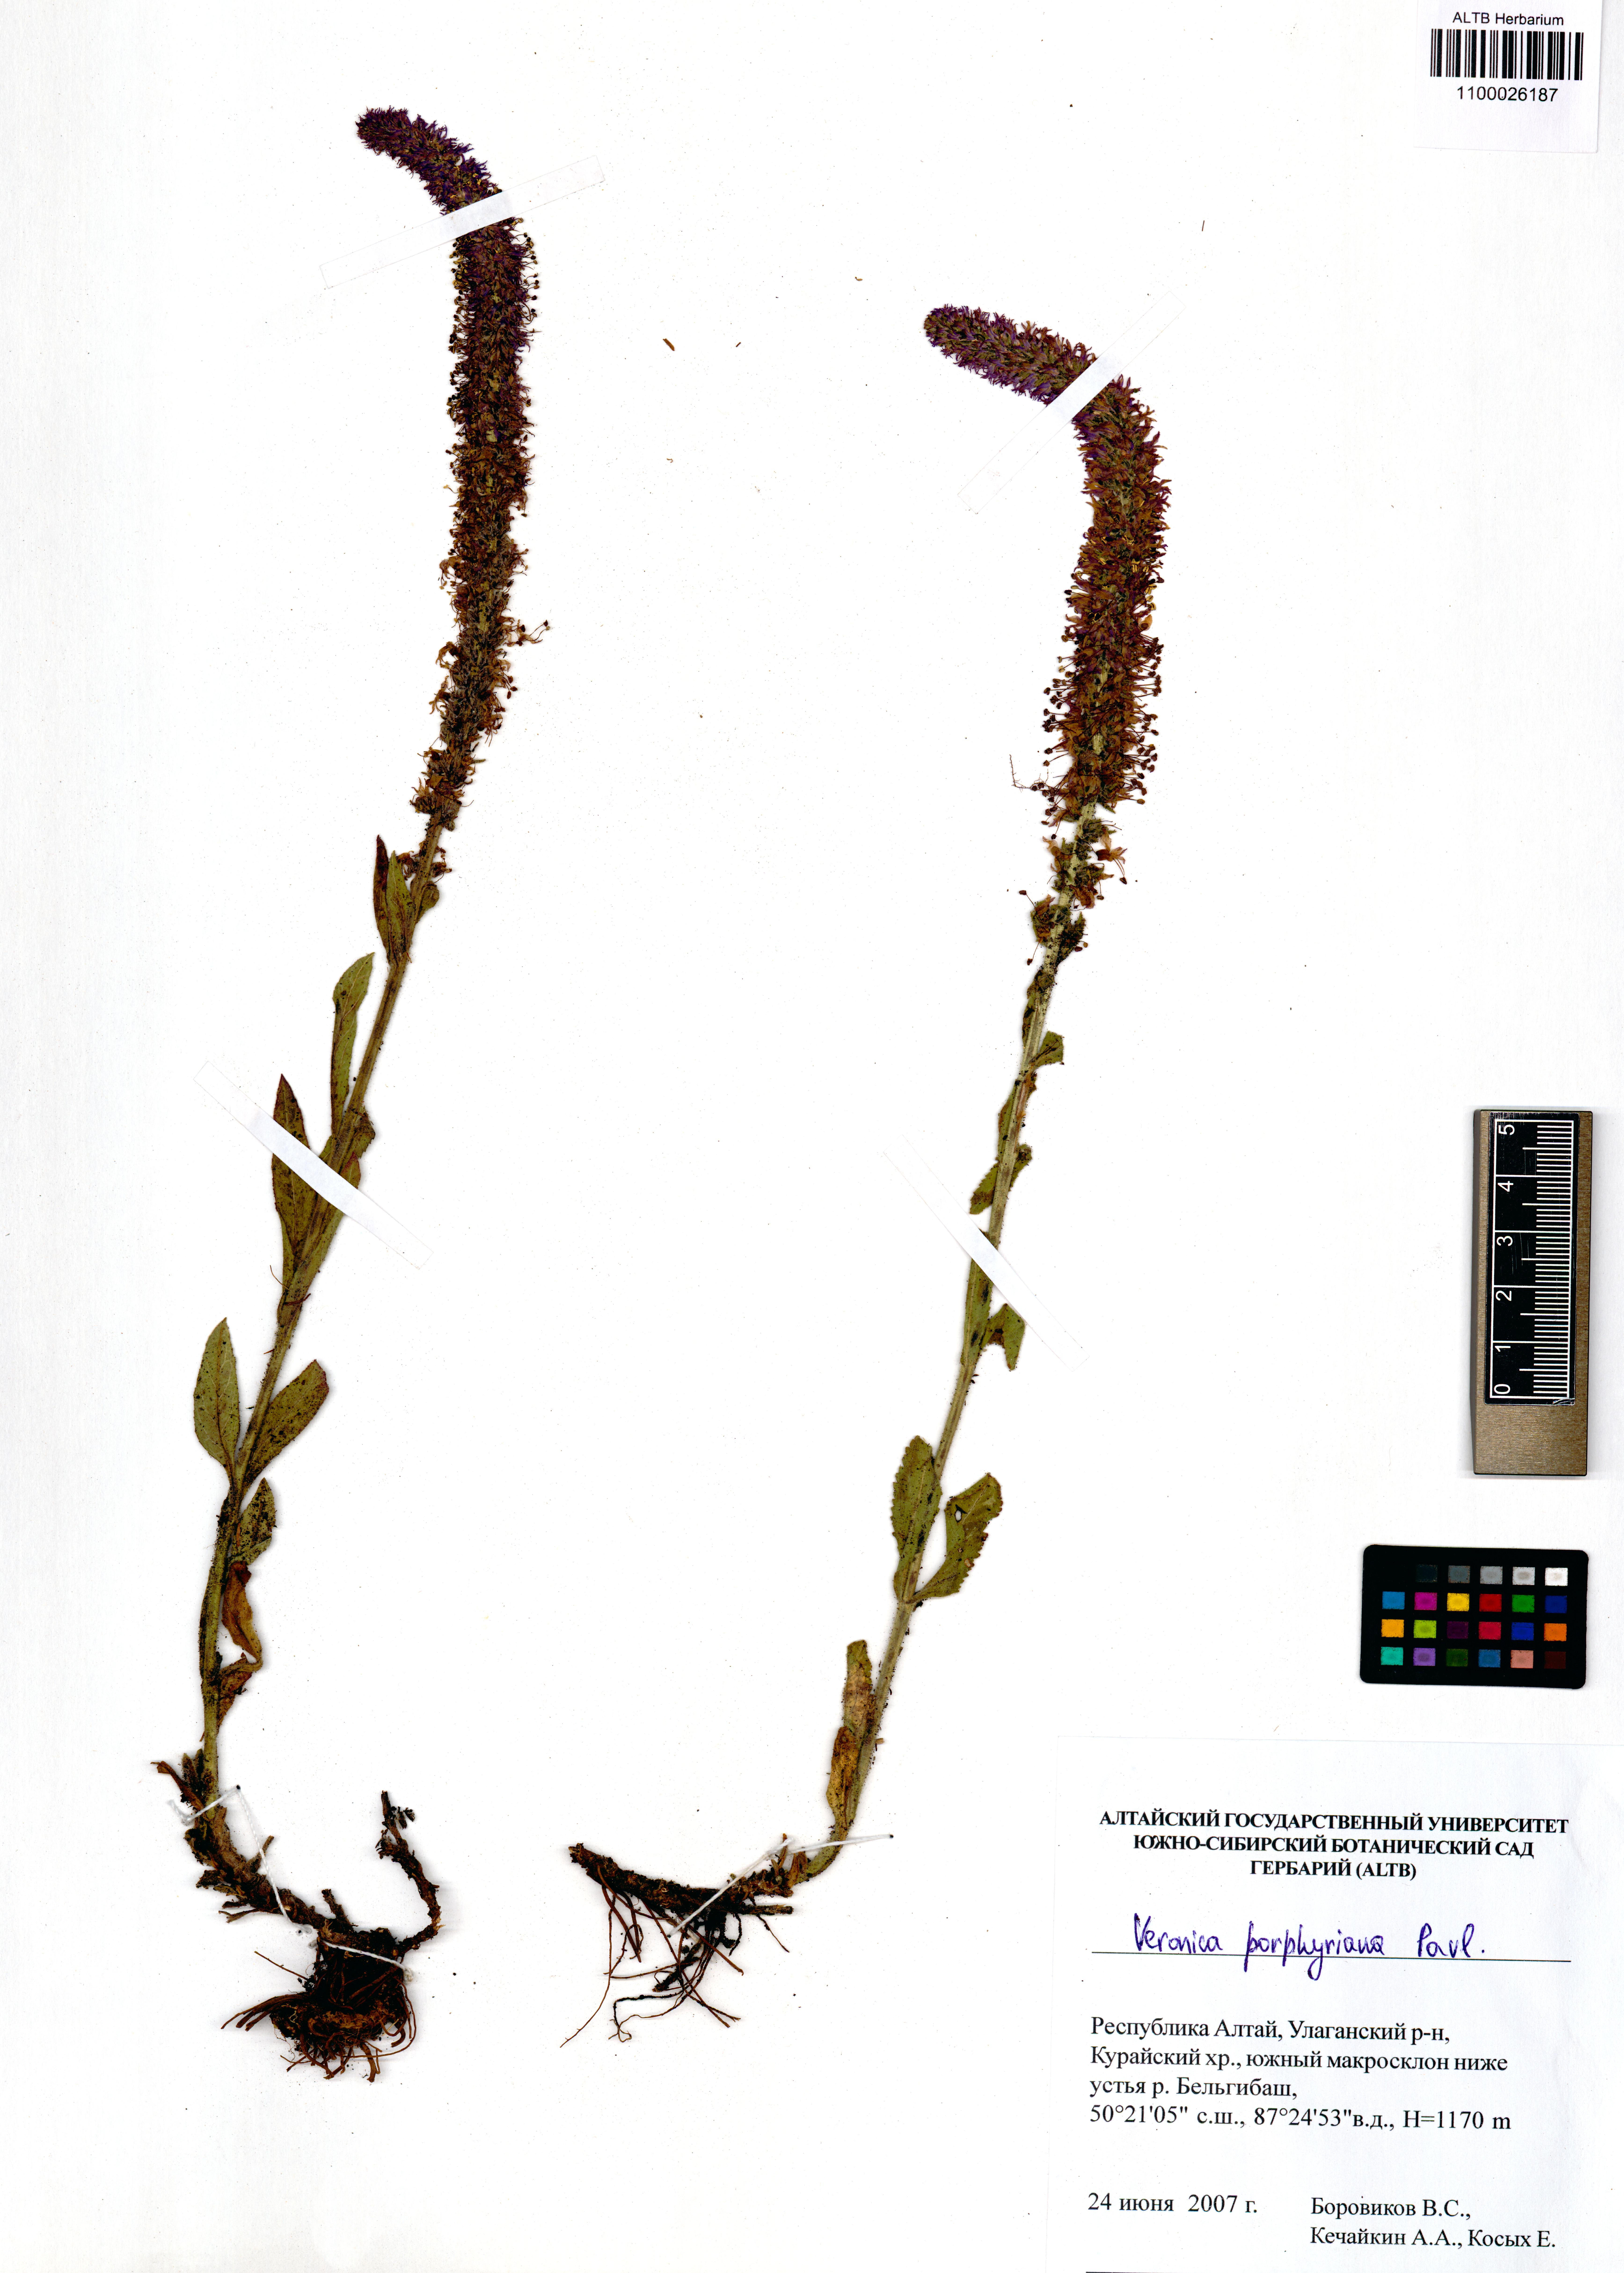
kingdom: Plantae
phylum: Tracheophyta
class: Magnoliopsida
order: Lamiales
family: Plantaginaceae
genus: Veronica
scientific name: Veronica porphyriana
